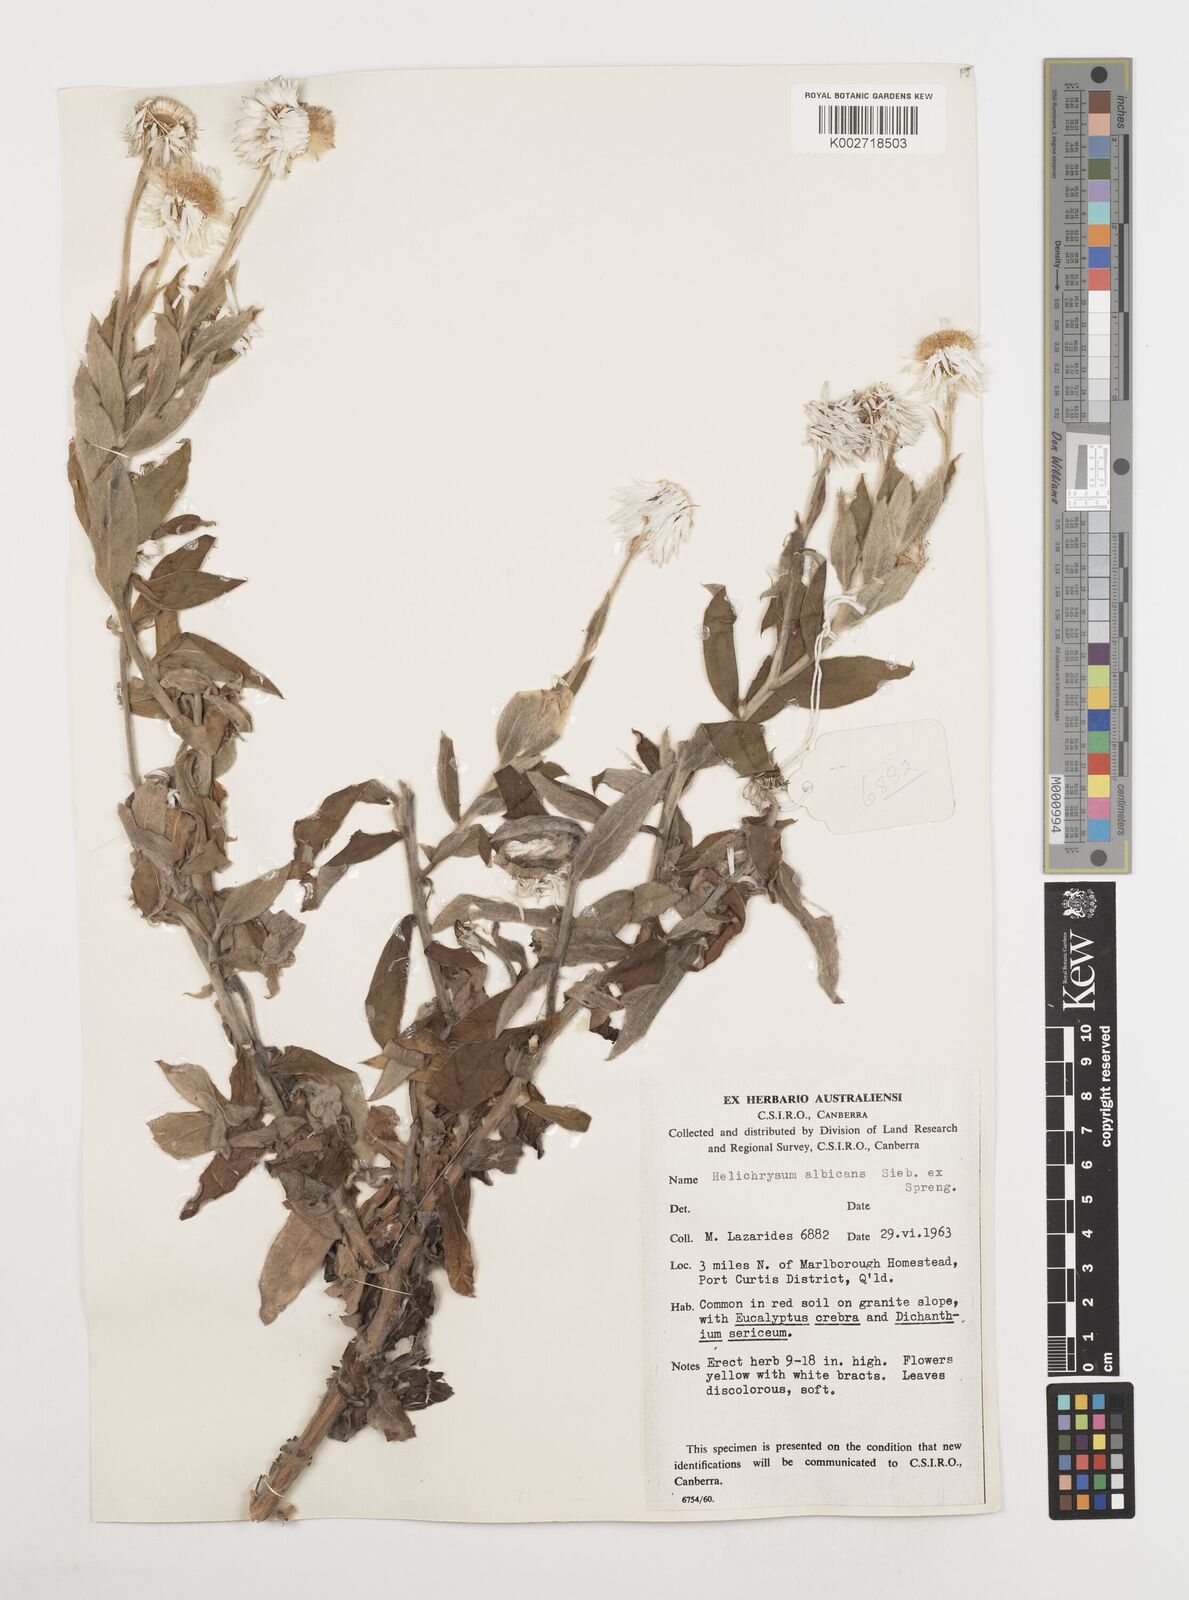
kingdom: Plantae
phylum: Tracheophyta
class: Magnoliopsida
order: Asterales
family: Asteraceae
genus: Leucozoma
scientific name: Leucozoma elatum
